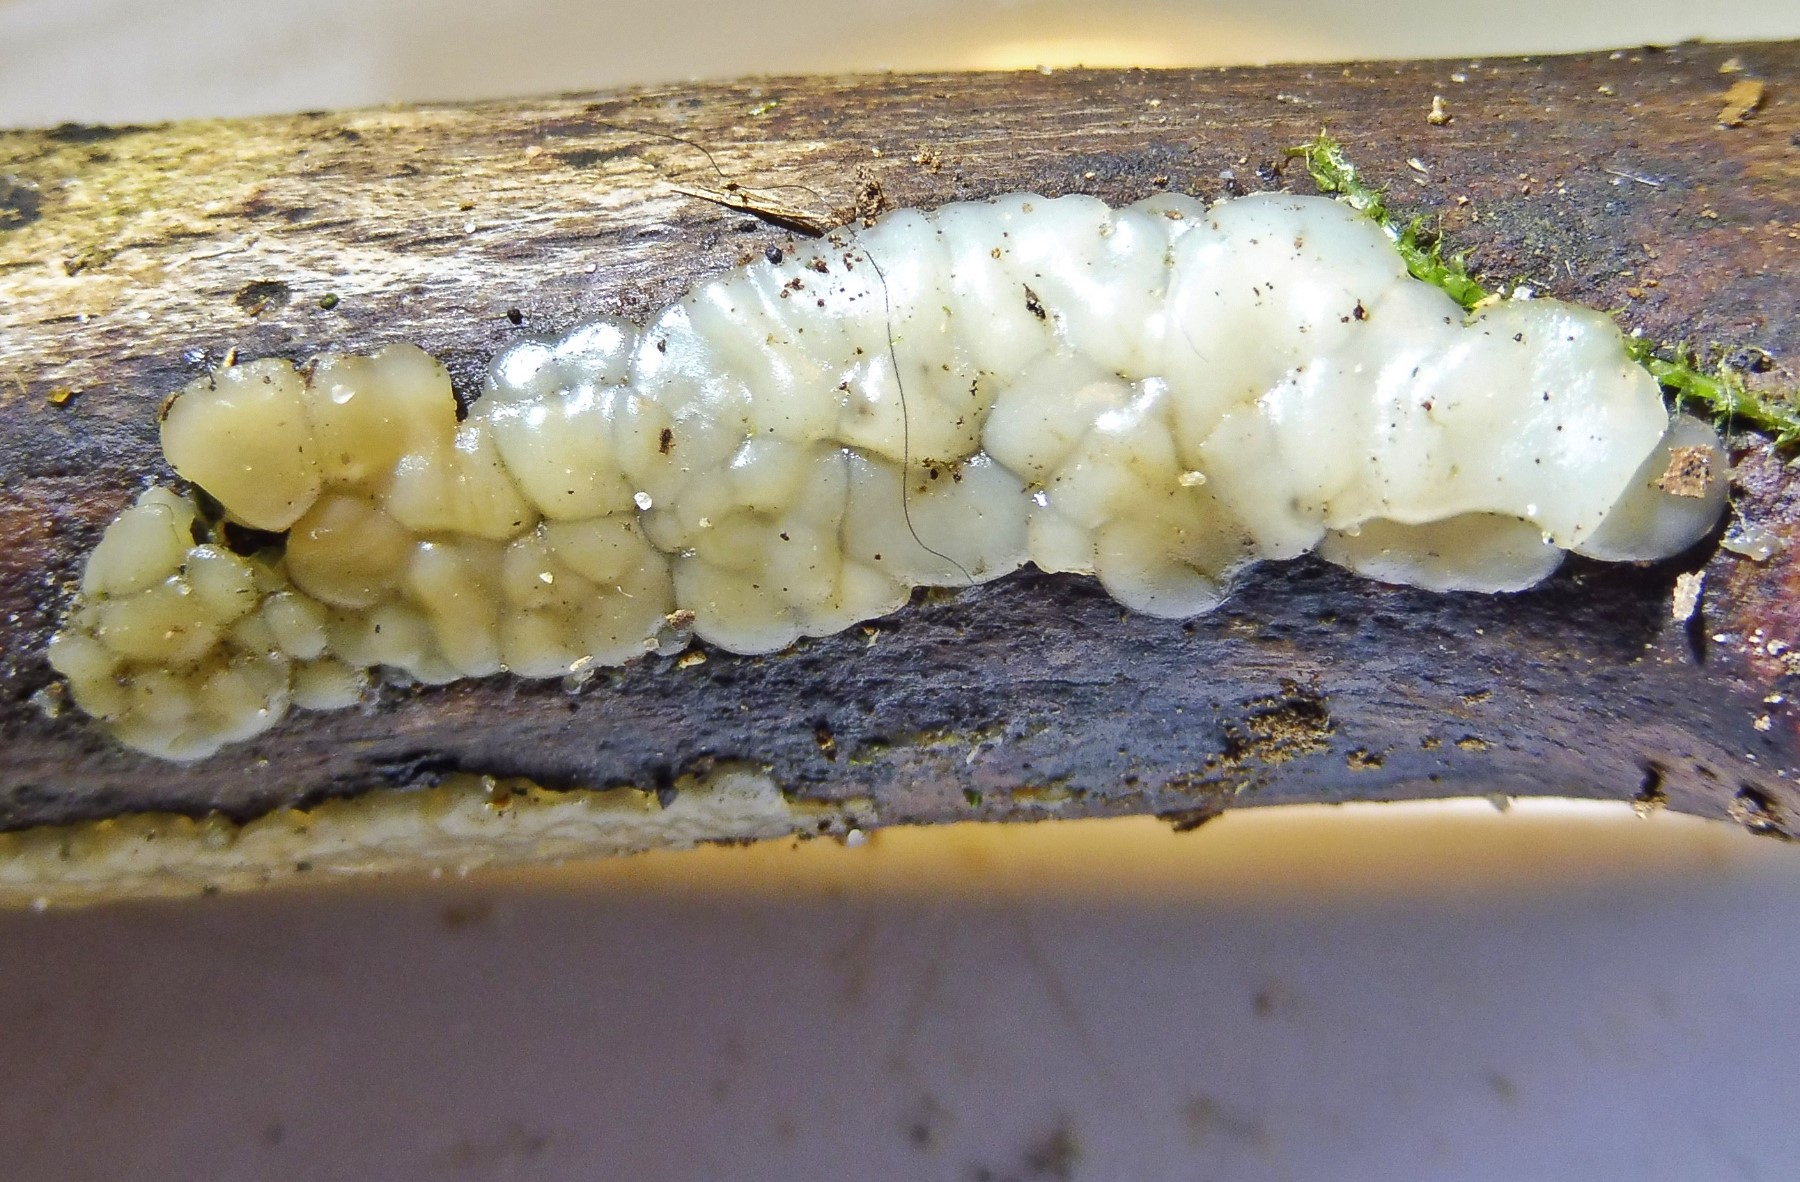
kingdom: Fungi
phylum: Basidiomycota
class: Agaricomycetes
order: Auriculariales
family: Auriculariaceae
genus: Exidia
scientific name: Exidia thuretiana
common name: hvidlig bævretop
